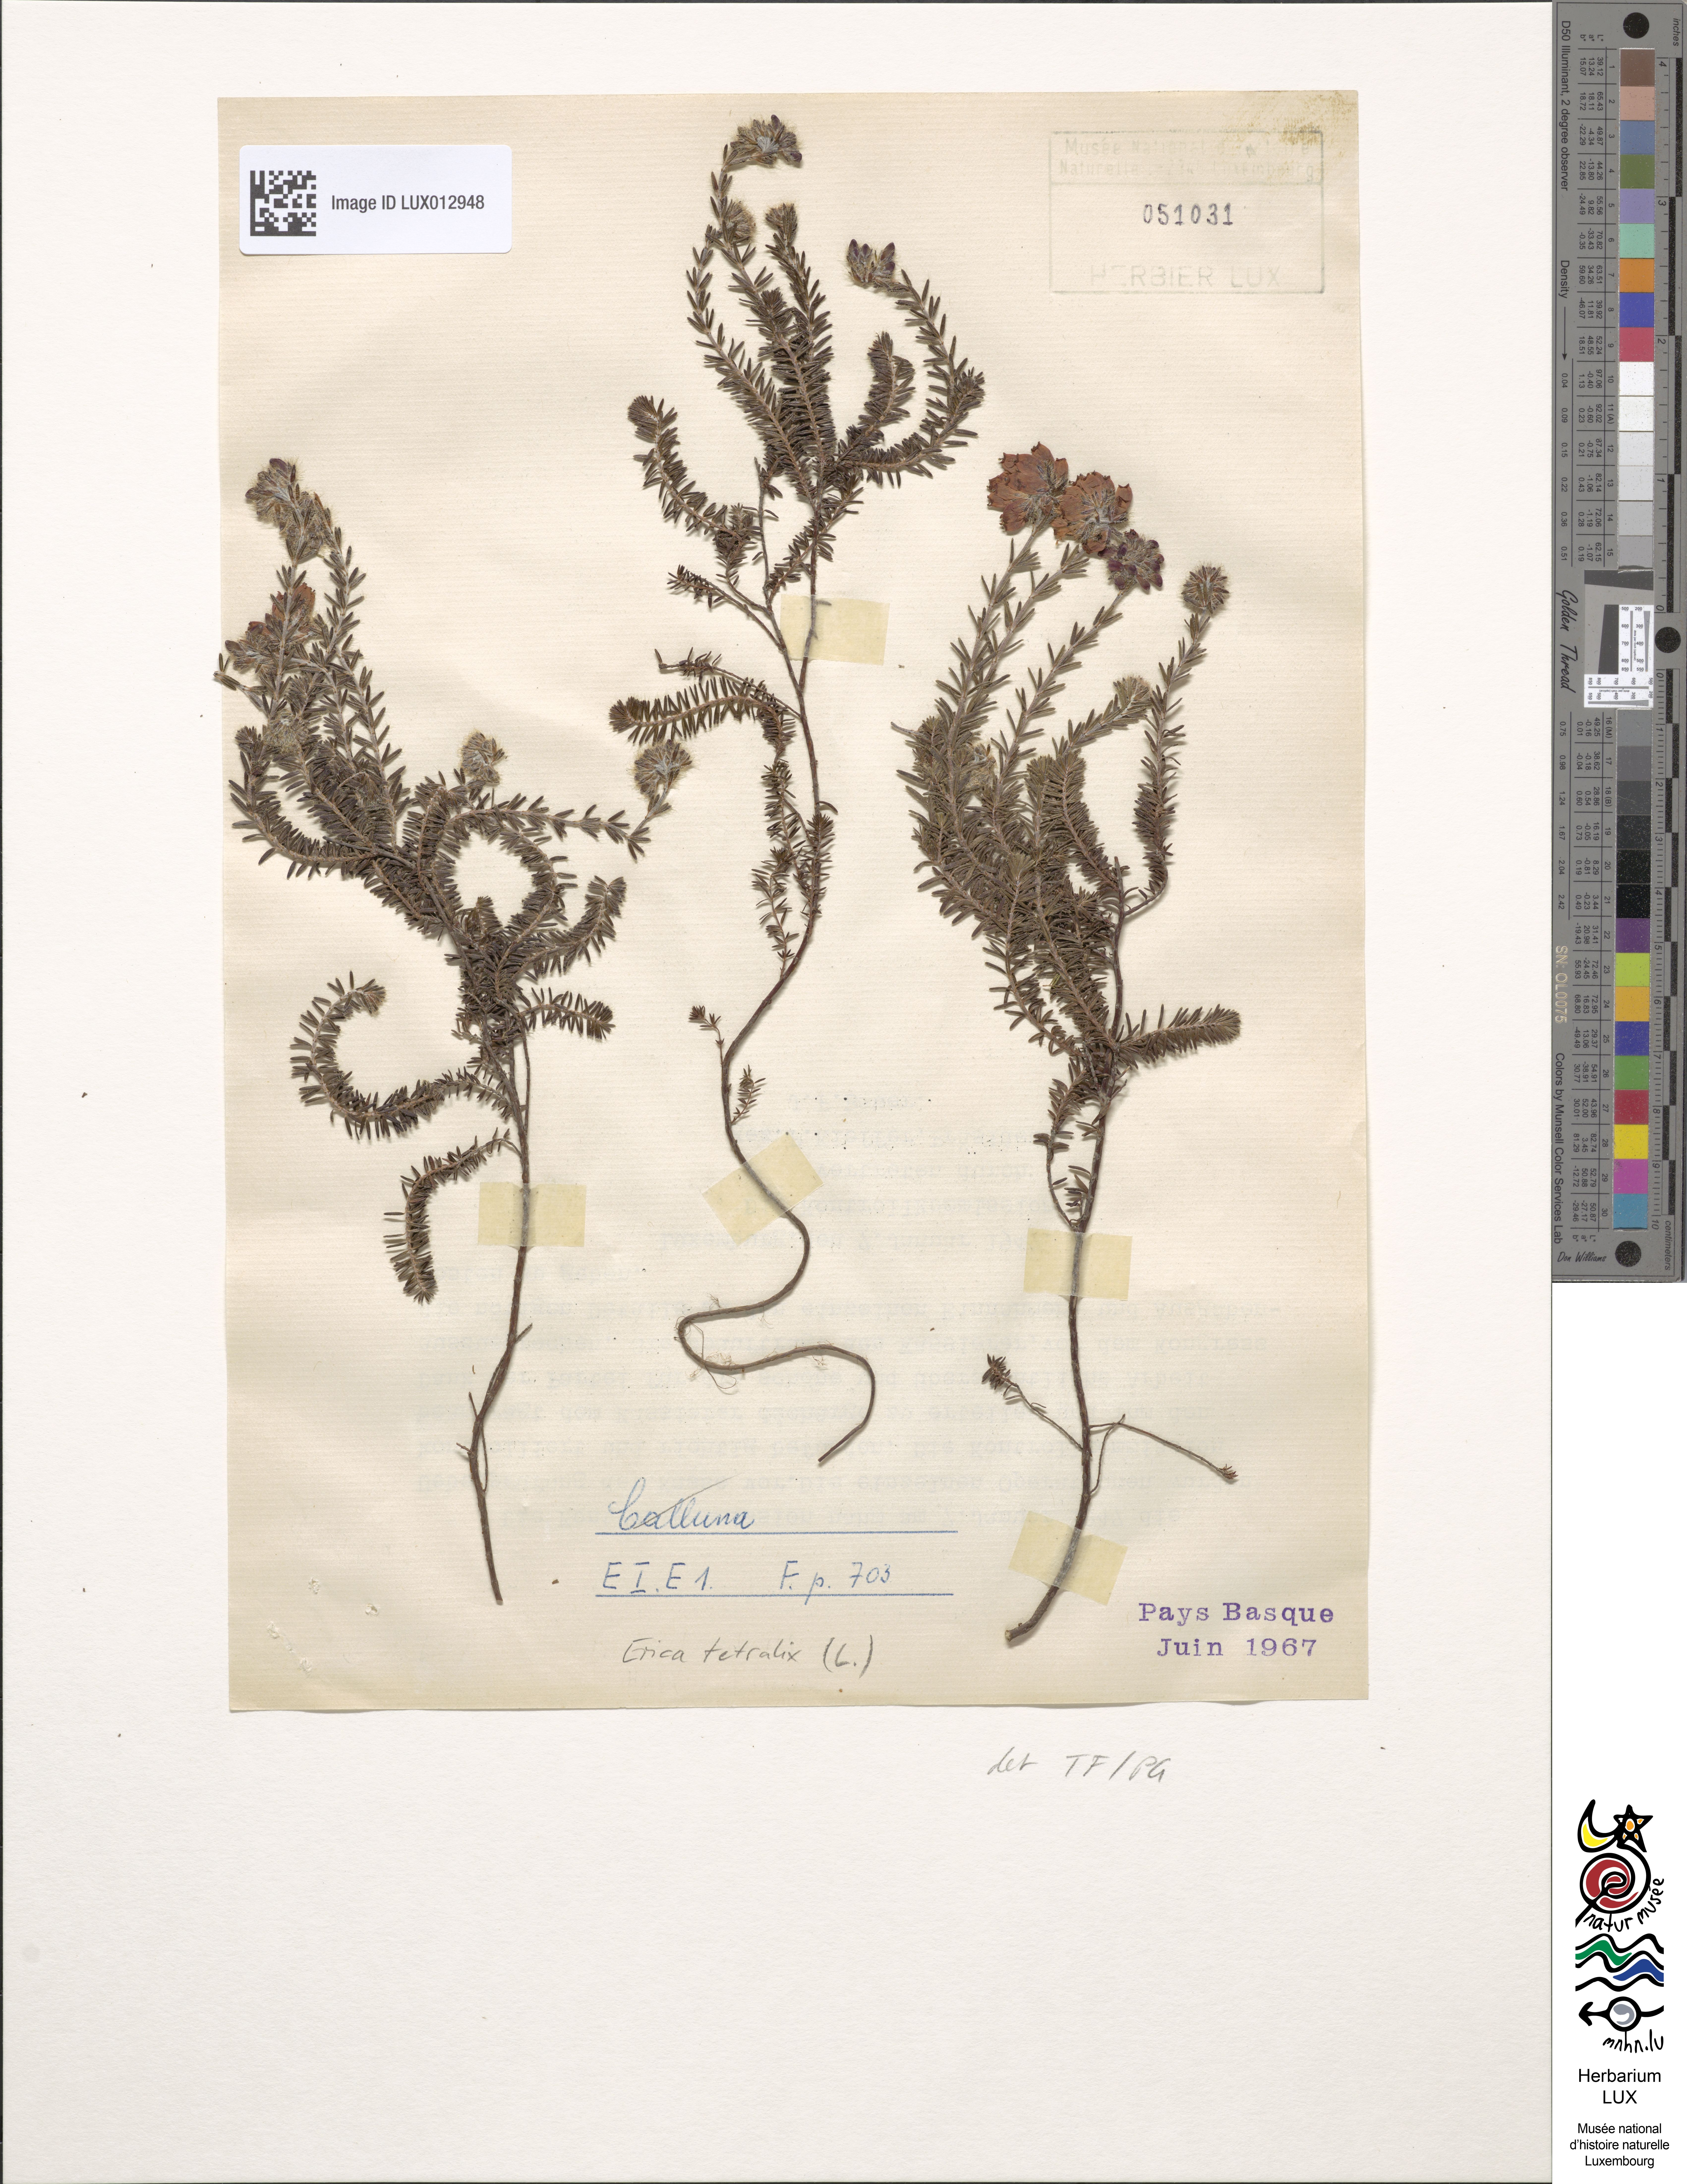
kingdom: Plantae
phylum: Tracheophyta
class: Magnoliopsida
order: Ericales
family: Ericaceae
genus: Erica
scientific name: Erica tetralix
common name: Cross-leaved heath
